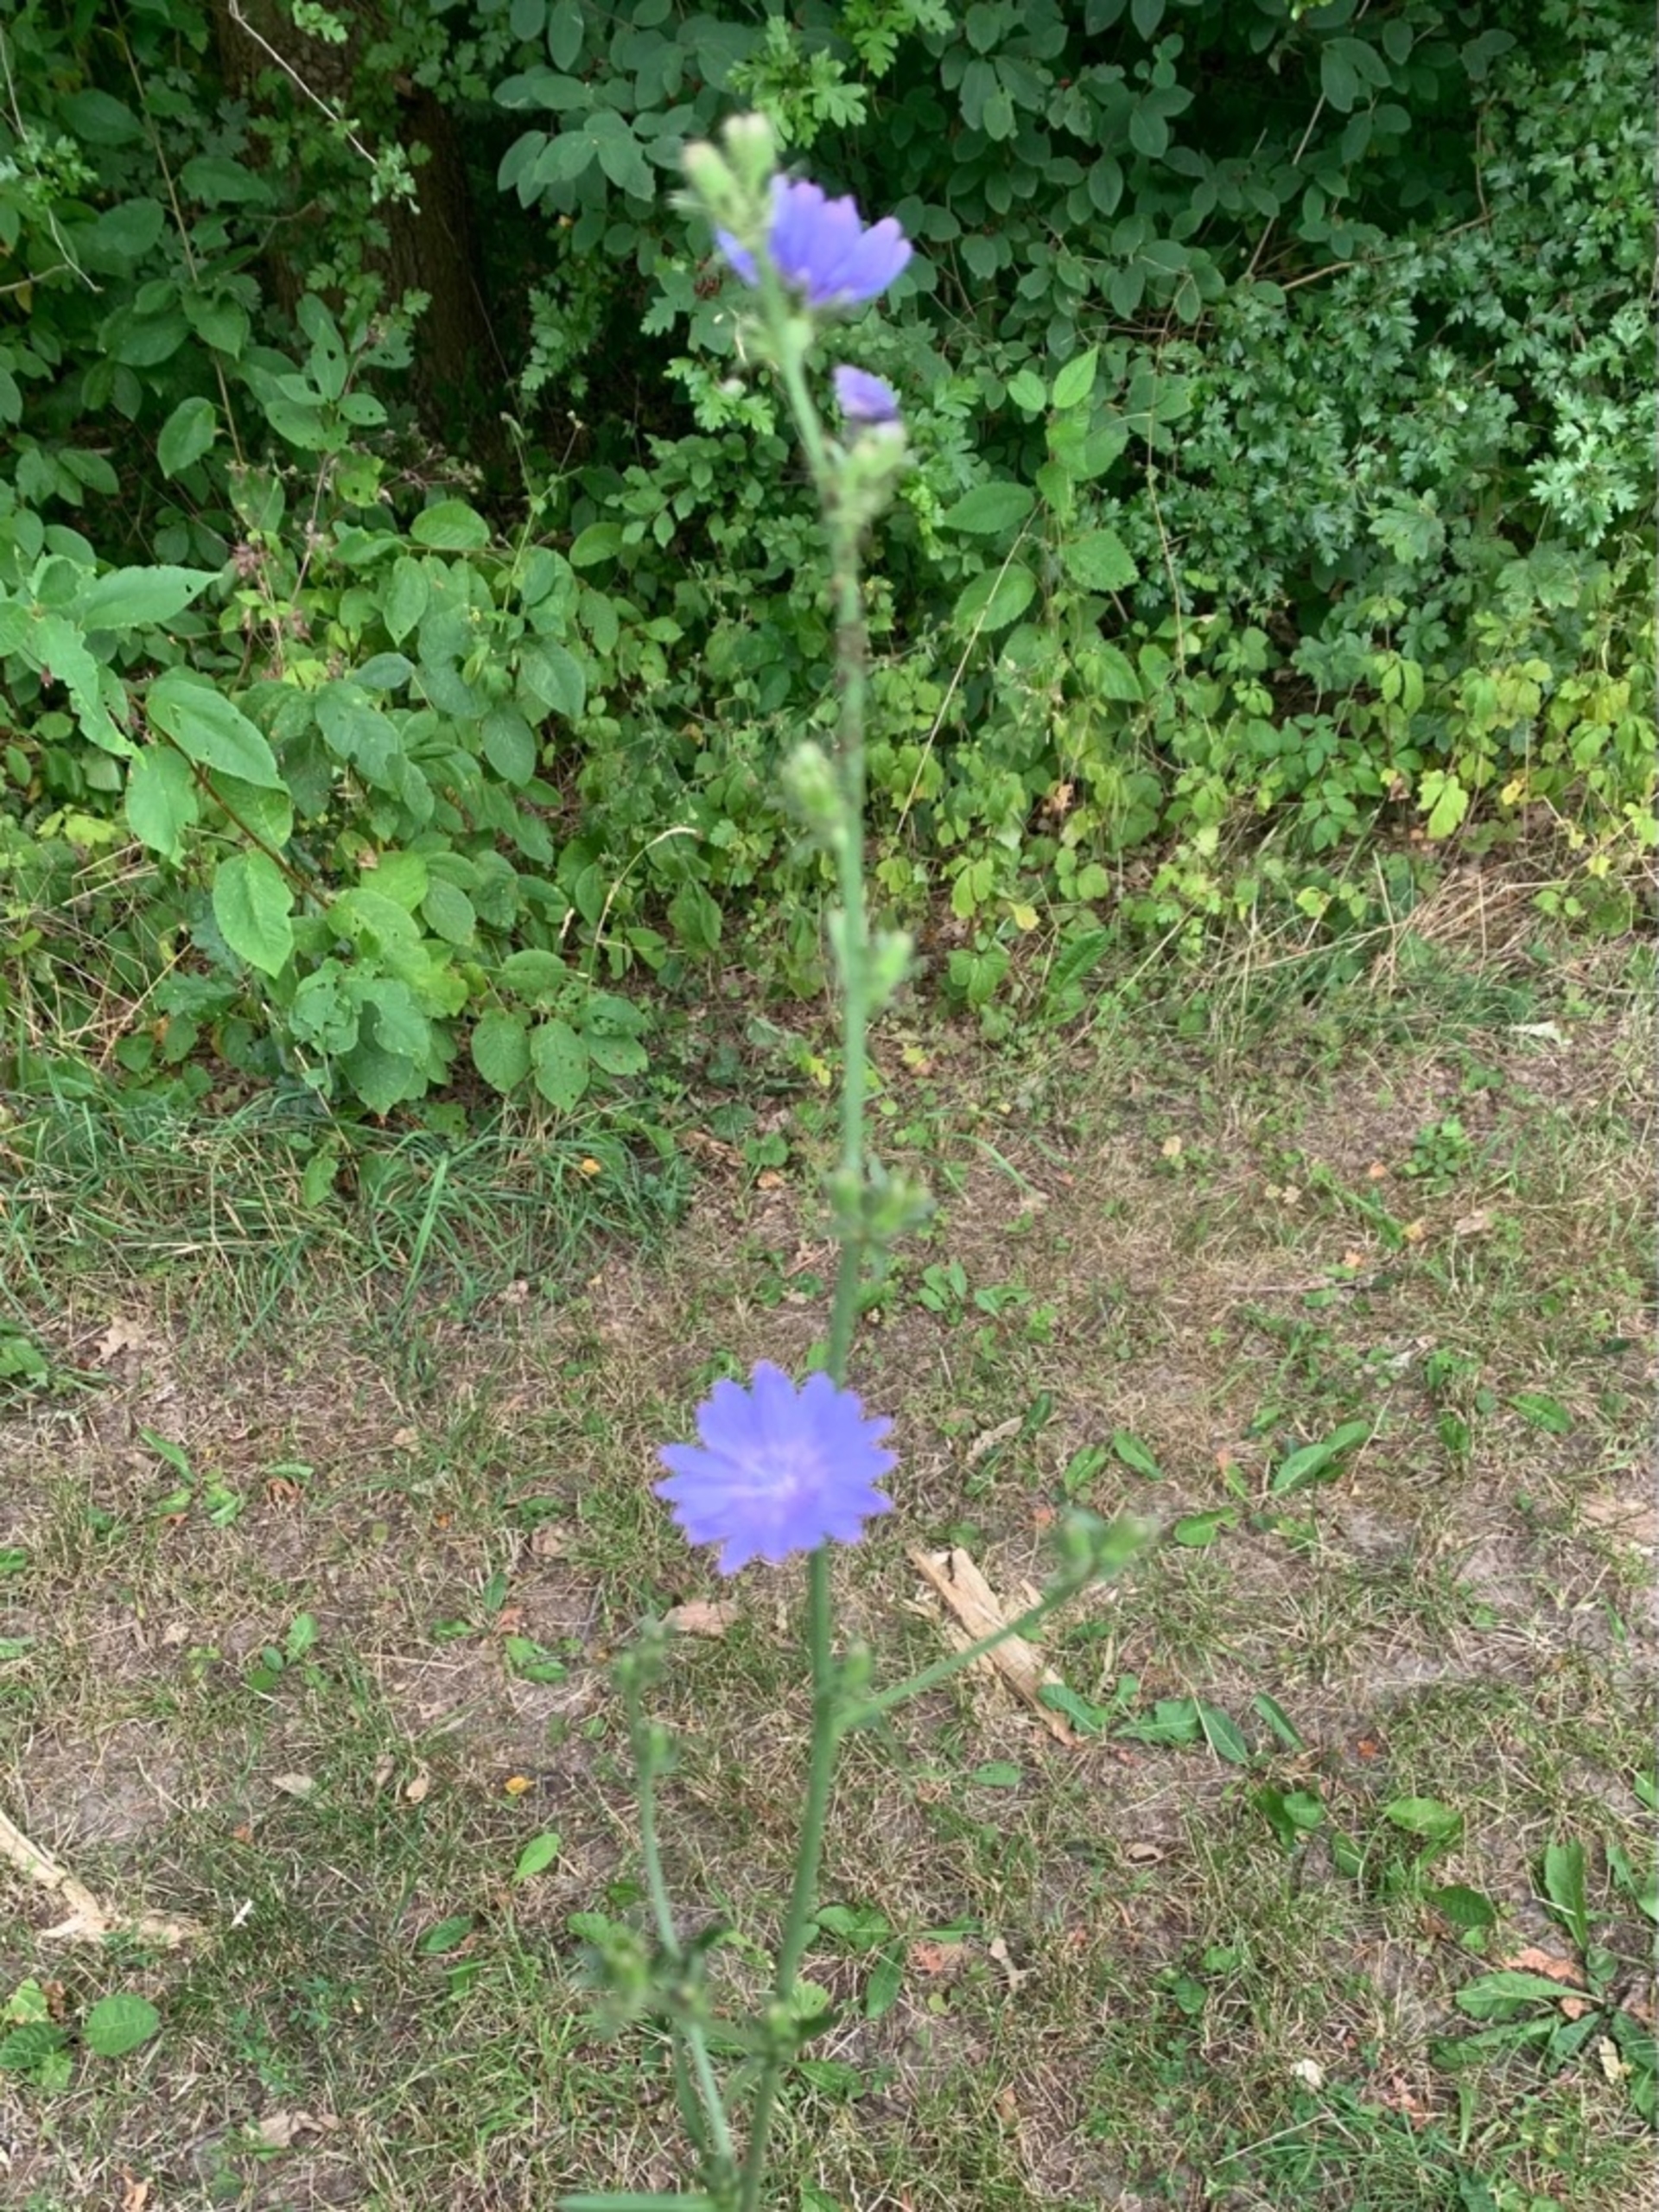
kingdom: Plantae
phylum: Tracheophyta
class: Magnoliopsida
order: Asterales
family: Asteraceae
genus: Cichorium
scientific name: Cichorium intybus
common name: Cikorie
